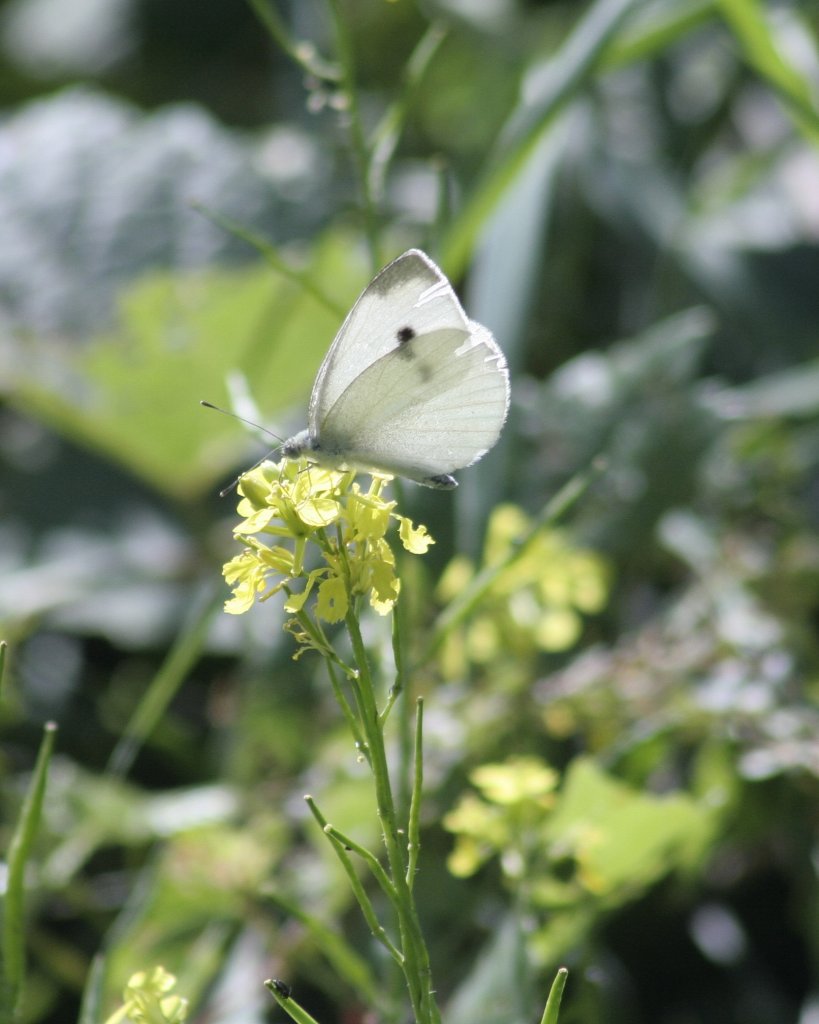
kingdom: Animalia
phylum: Arthropoda
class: Insecta
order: Lepidoptera
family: Pieridae
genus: Pieris
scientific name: Pieris rapae
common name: Cabbage White
